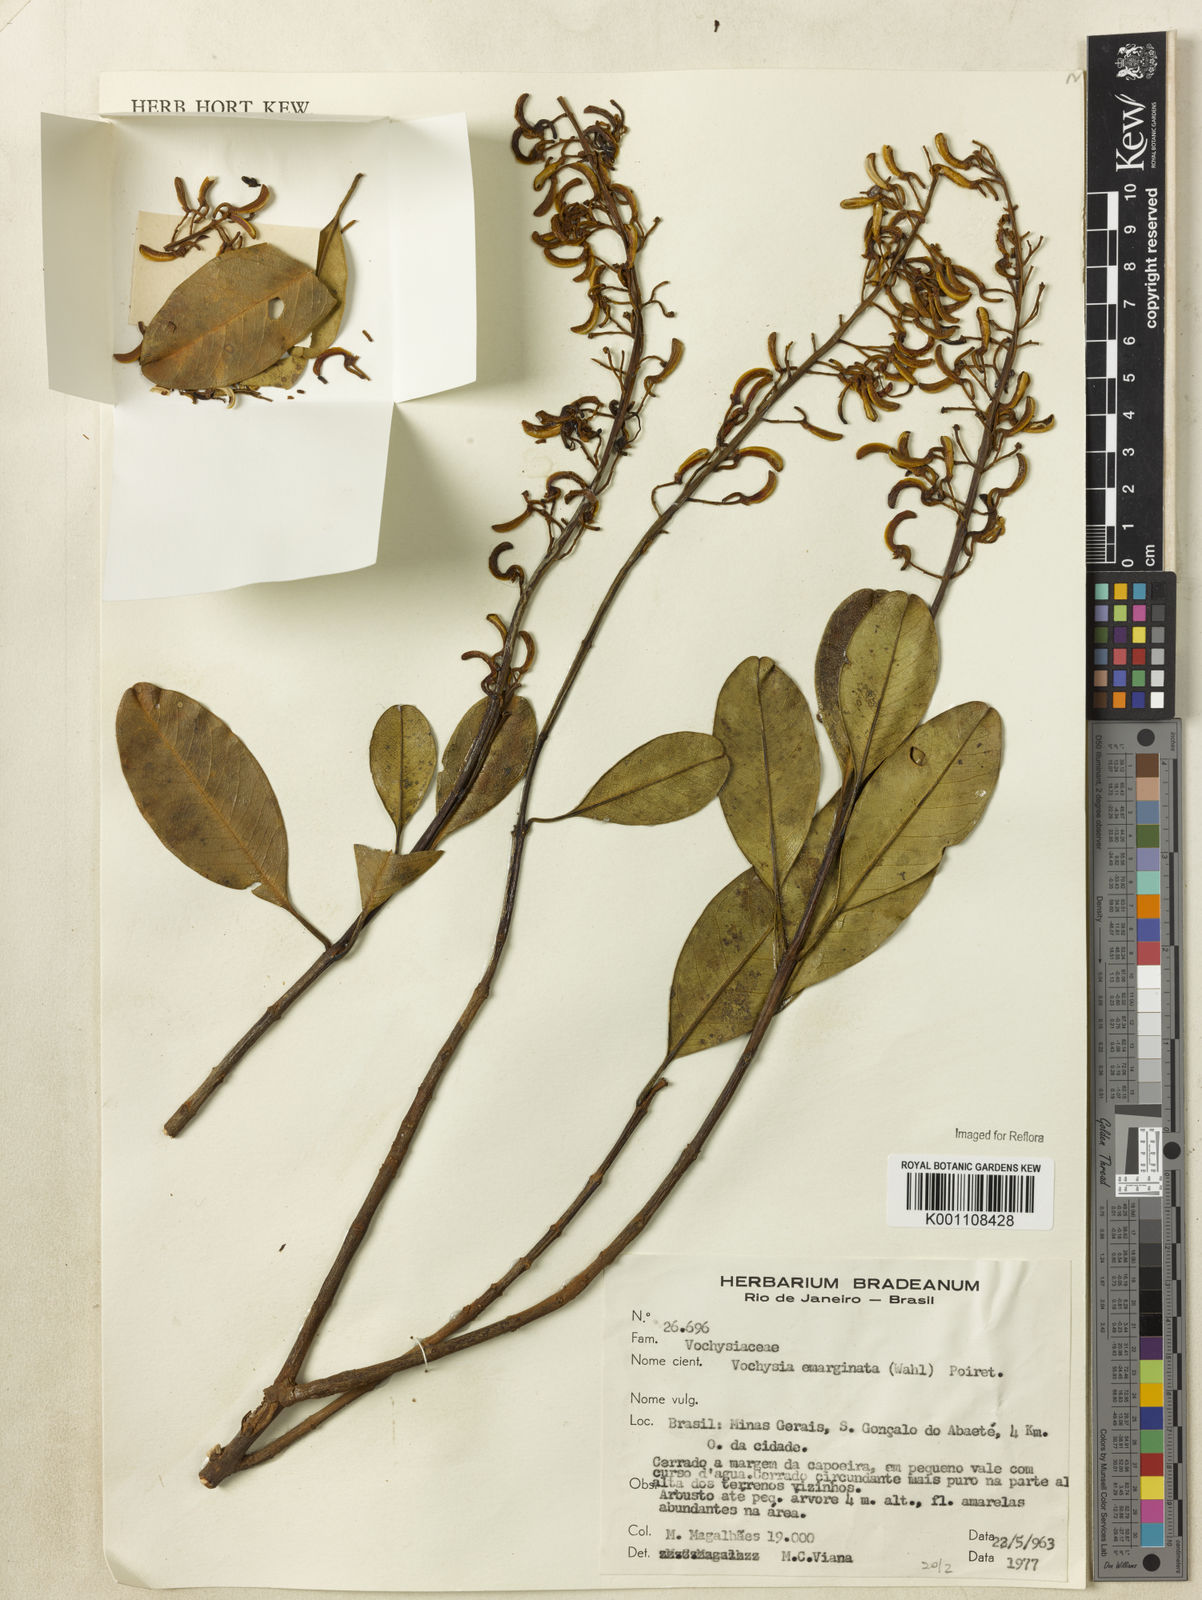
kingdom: Plantae
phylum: Tracheophyta
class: Magnoliopsida
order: Myrtales
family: Vochysiaceae
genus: Vochysia
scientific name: Vochysia
